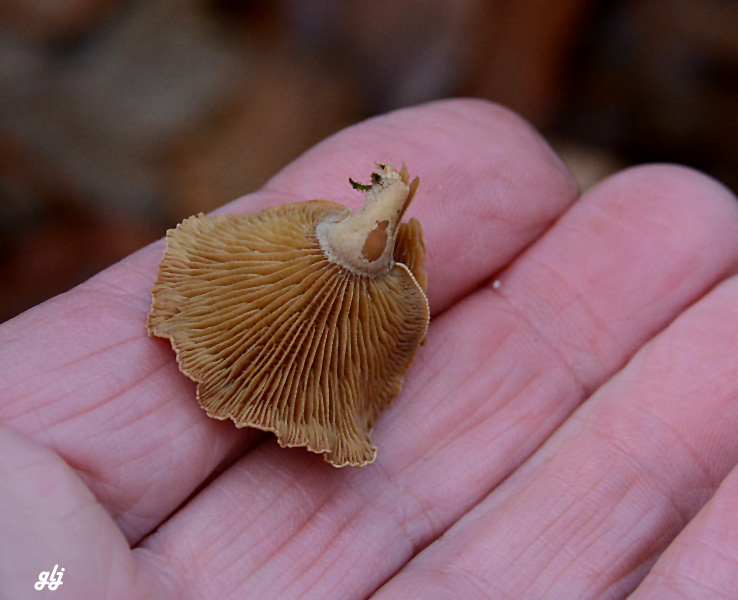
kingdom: Fungi
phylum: Basidiomycota
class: Agaricomycetes
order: Agaricales
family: Mycenaceae
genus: Panellus
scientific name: Panellus stipticus
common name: kliddet epaulethat
